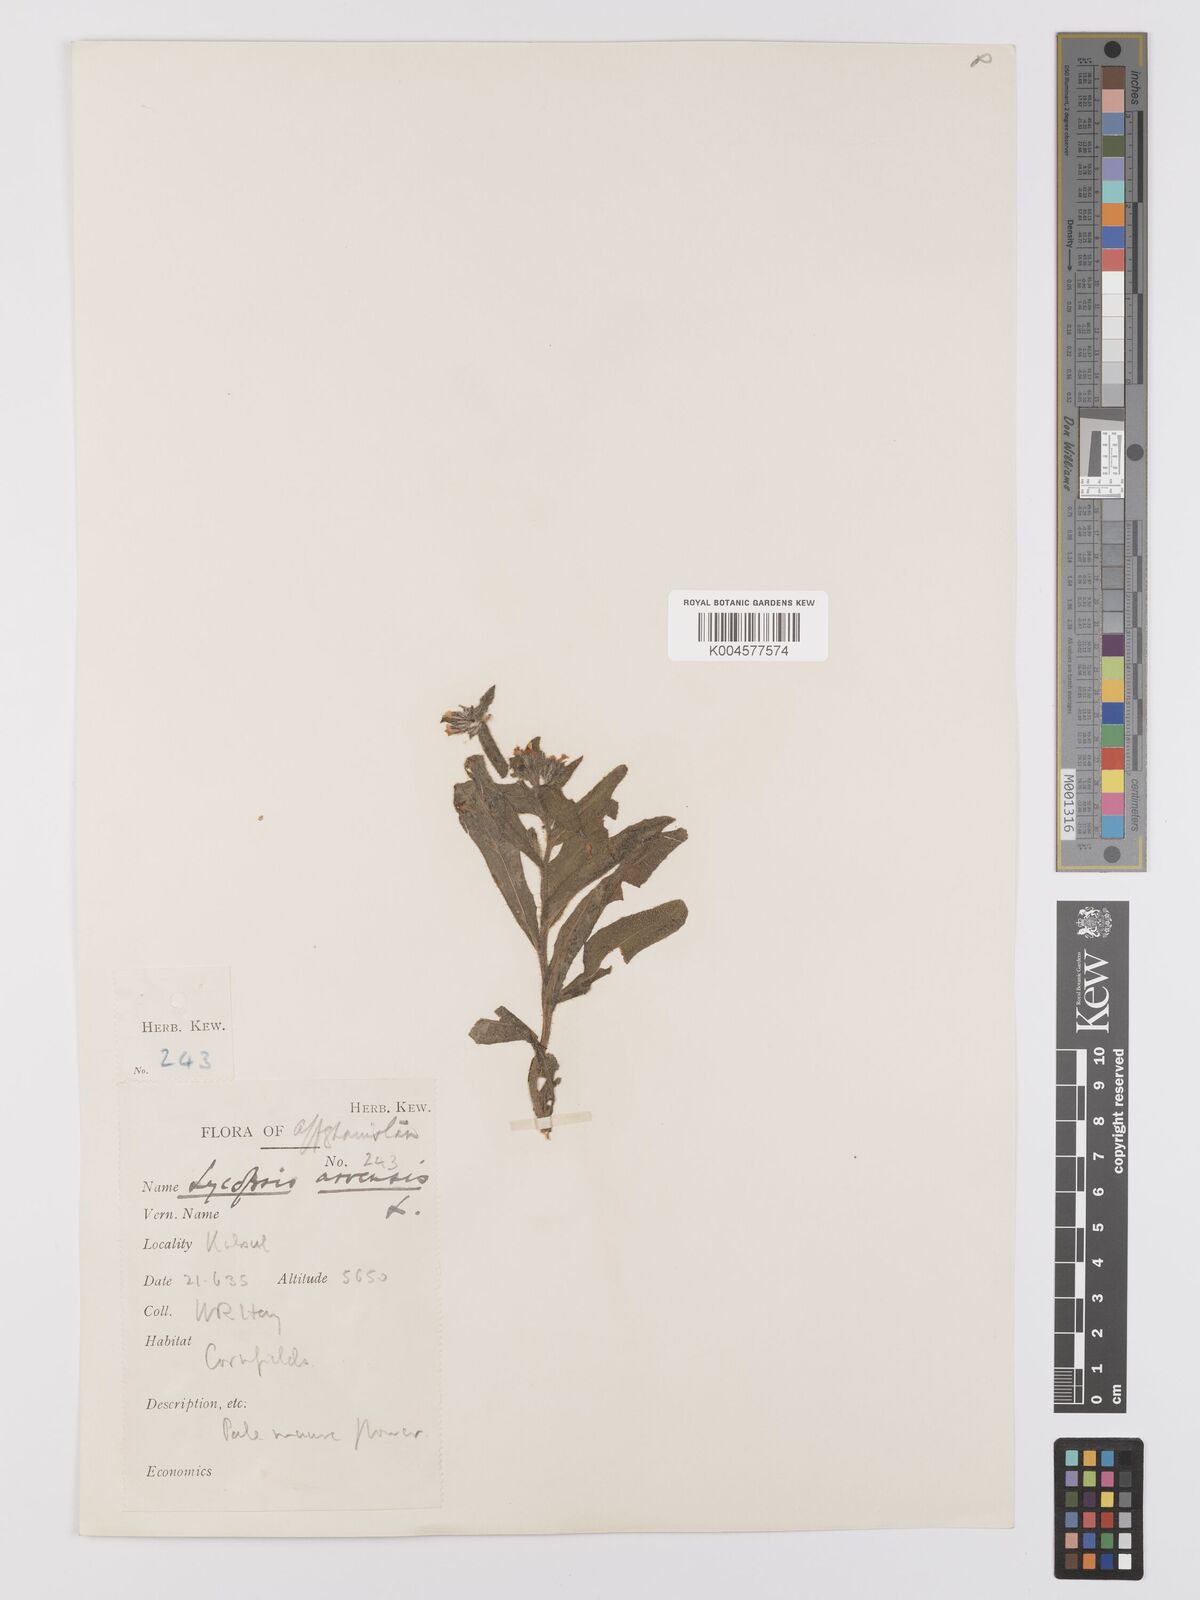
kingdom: Plantae
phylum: Tracheophyta
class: Magnoliopsida
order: Boraginales
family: Boraginaceae
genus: Lycopsis
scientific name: Lycopsis arvensis
